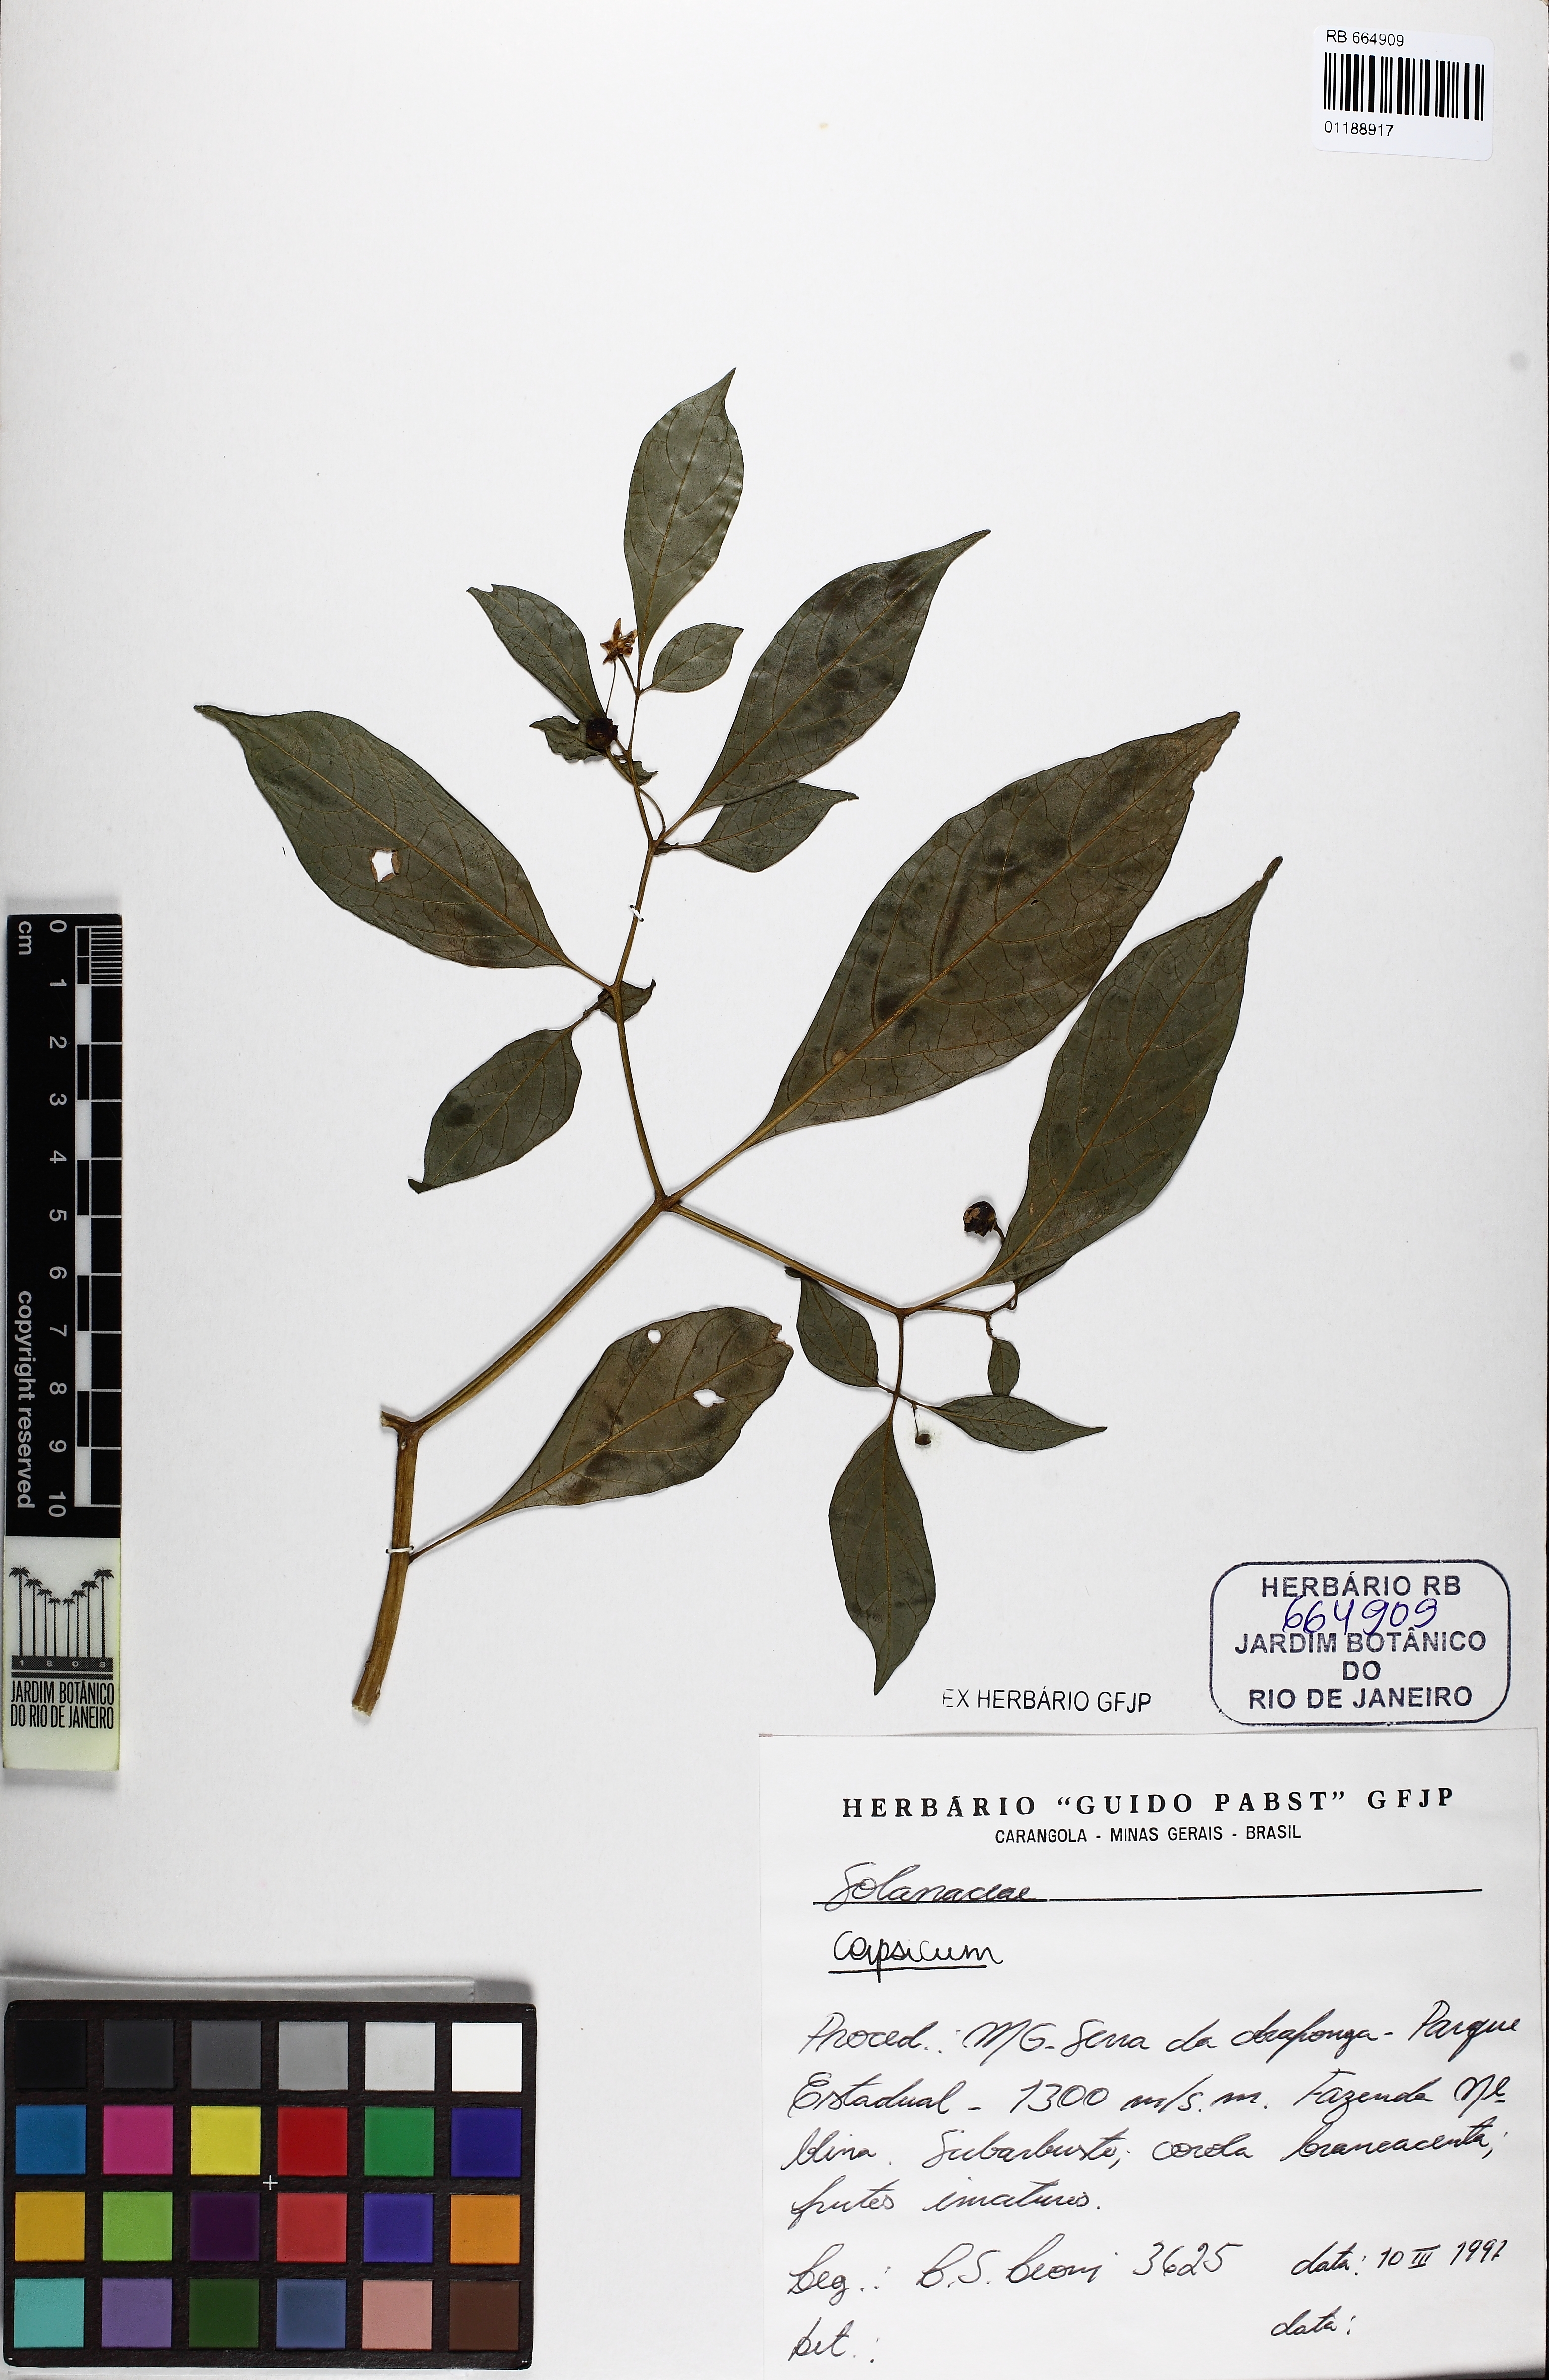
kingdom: Plantae
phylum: Tracheophyta
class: Magnoliopsida
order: Solanales
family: Solanaceae
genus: Capsicum
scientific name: Capsicum campylopodium
